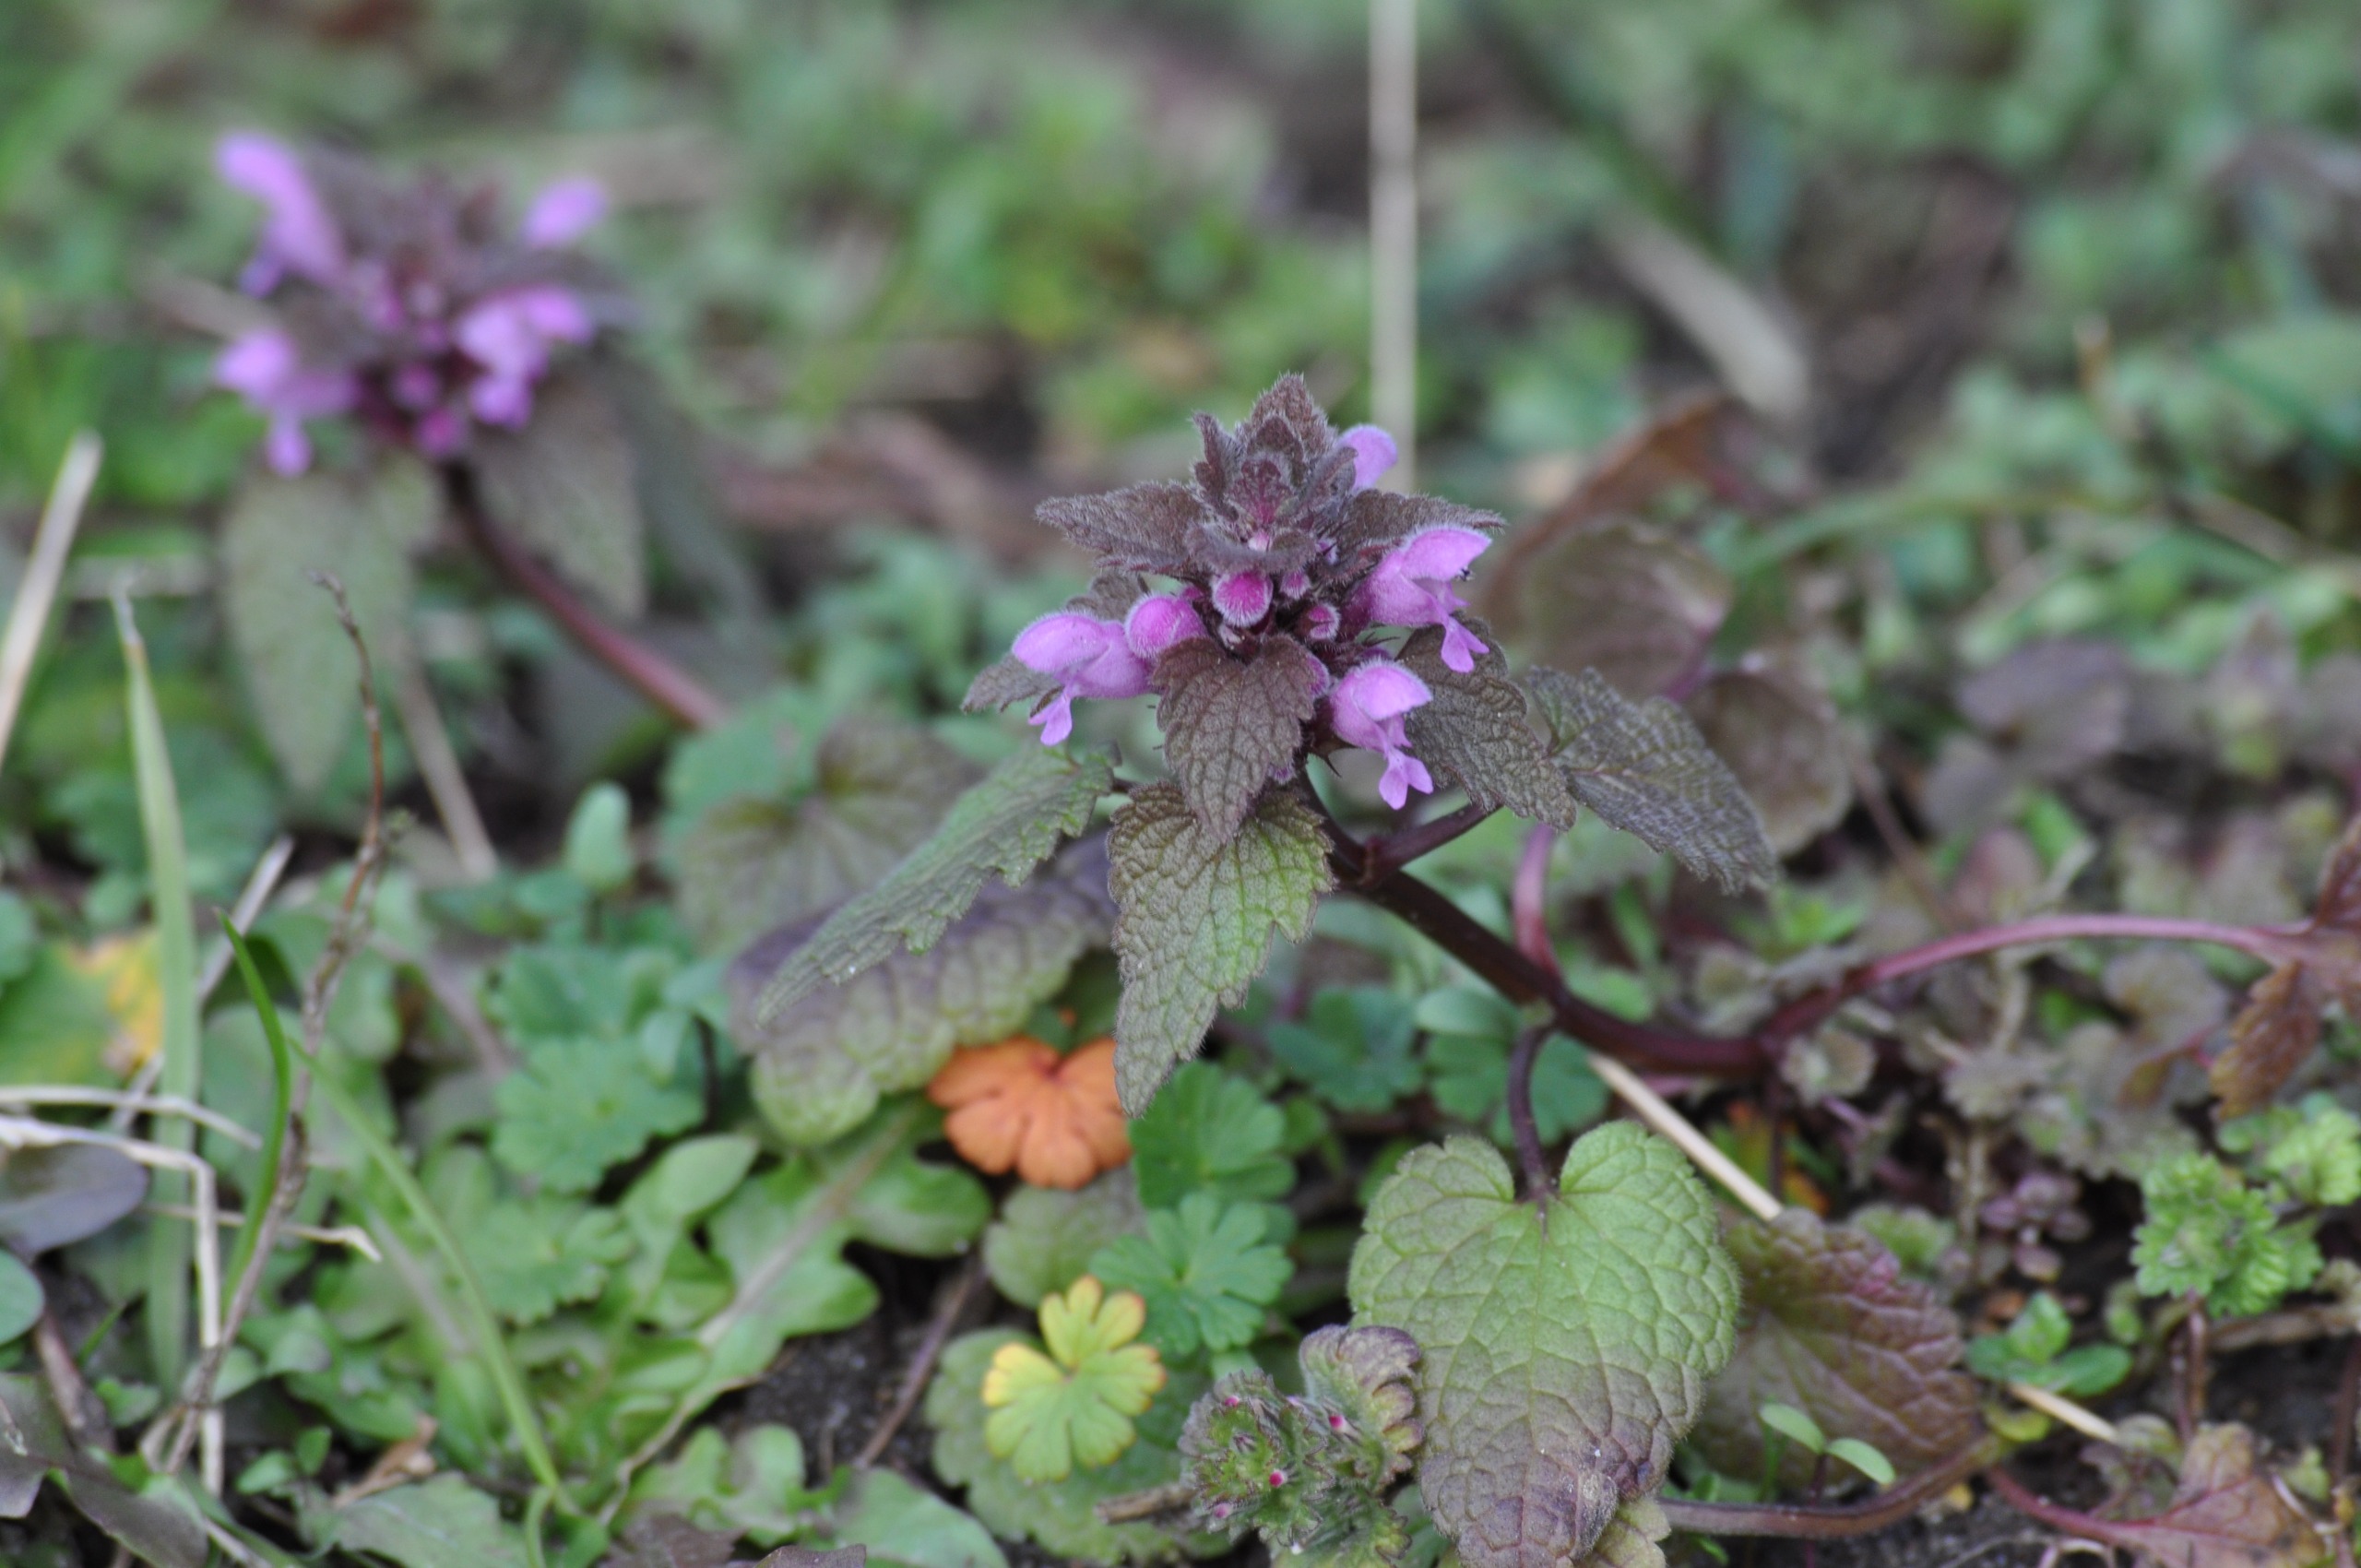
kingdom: Plantae
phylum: Tracheophyta
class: Magnoliopsida
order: Lamiales
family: Lamiaceae
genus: Lamium
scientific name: Lamium purpureum
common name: Rød tvetand
